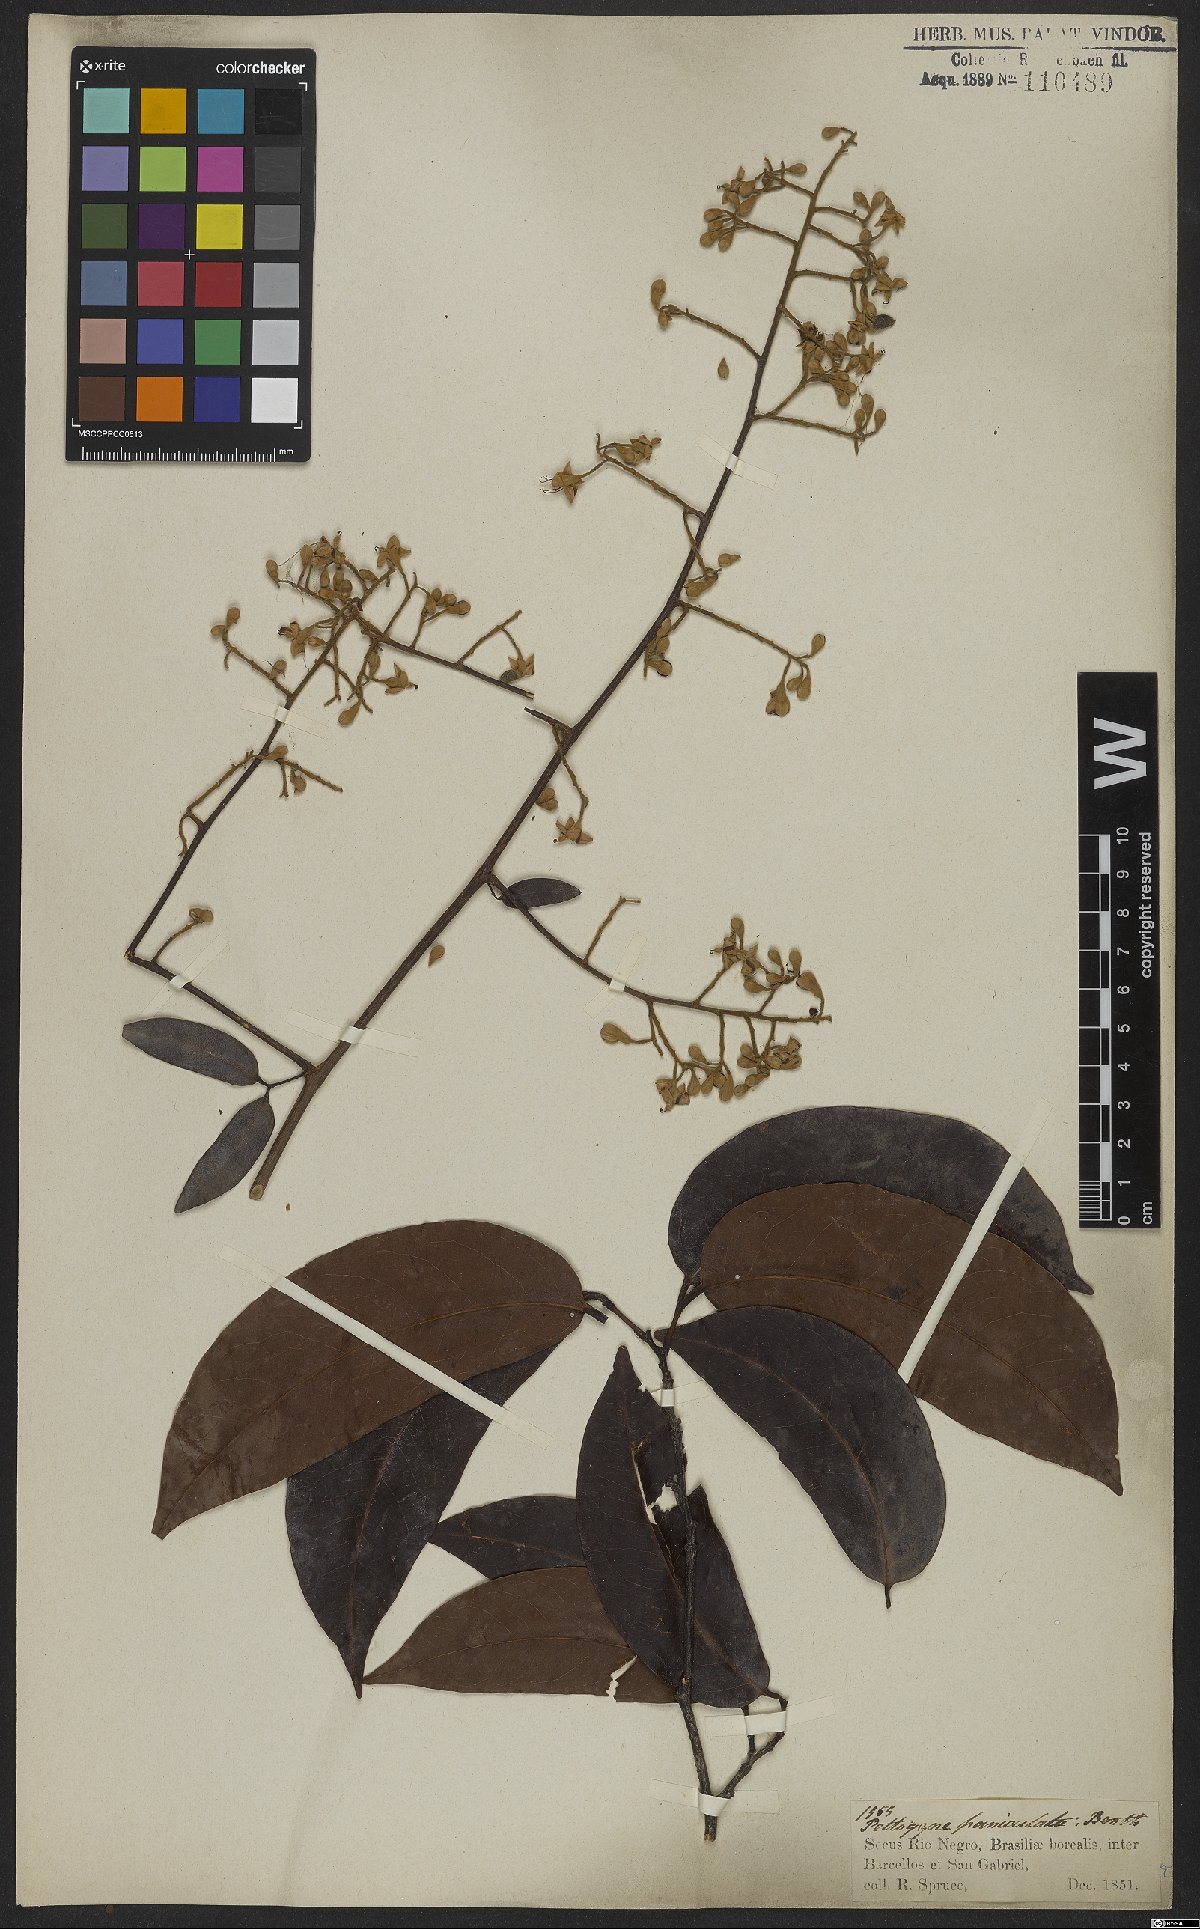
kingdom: Plantae
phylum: Tracheophyta
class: Magnoliopsida
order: Fabales
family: Fabaceae
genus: Peltogyne
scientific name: Peltogyne paniculata
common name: Purpleheart
